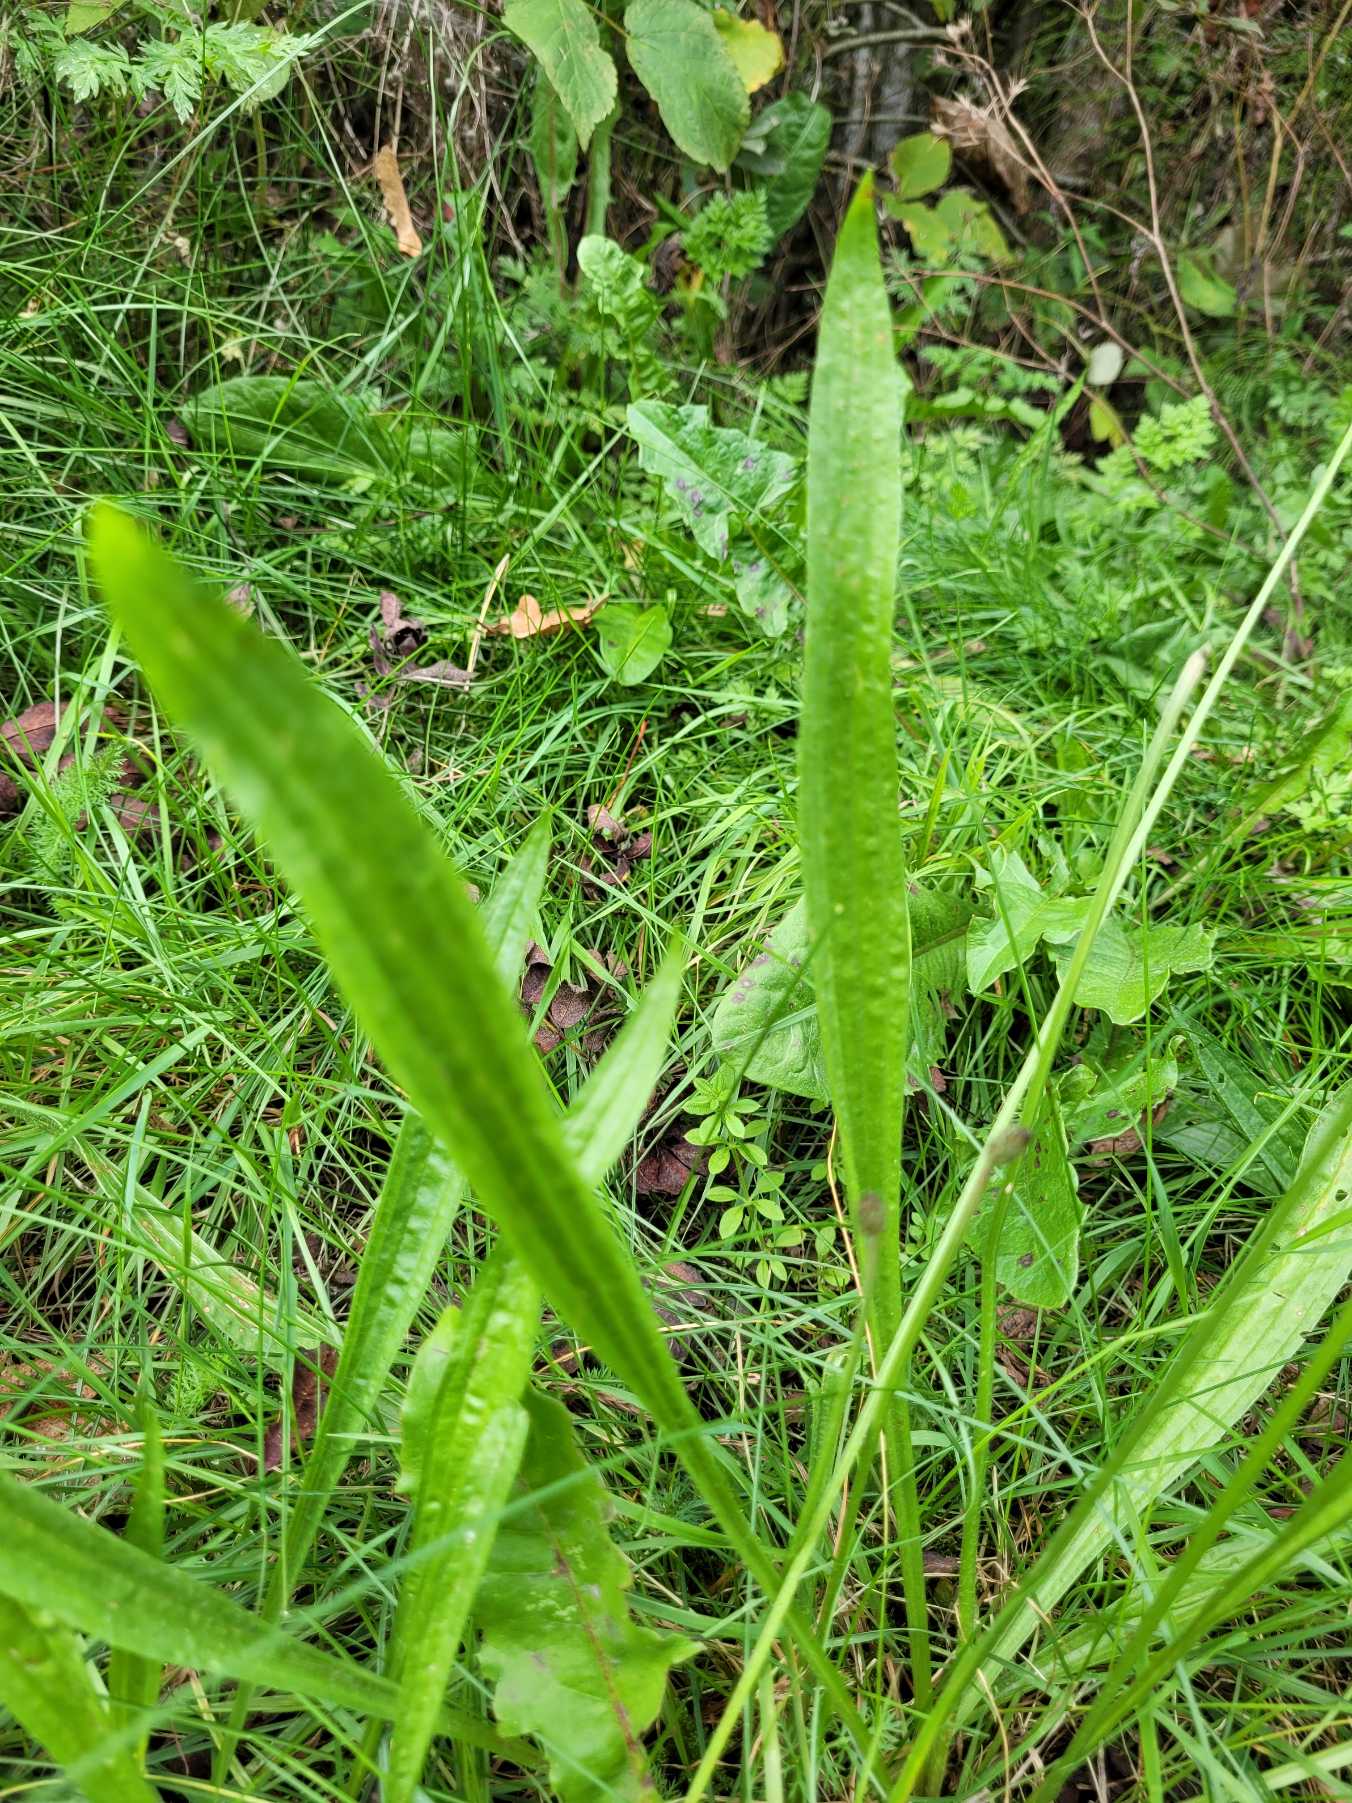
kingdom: Plantae
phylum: Tracheophyta
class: Magnoliopsida
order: Lamiales
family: Plantaginaceae
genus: Plantago
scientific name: Plantago lanceolata
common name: Lancet-vejbred
